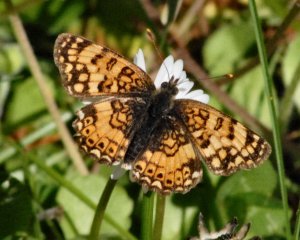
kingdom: Animalia
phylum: Arthropoda
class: Insecta
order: Lepidoptera
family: Nymphalidae
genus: Eresia
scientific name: Eresia aveyrona
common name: Mylitta Crescent
